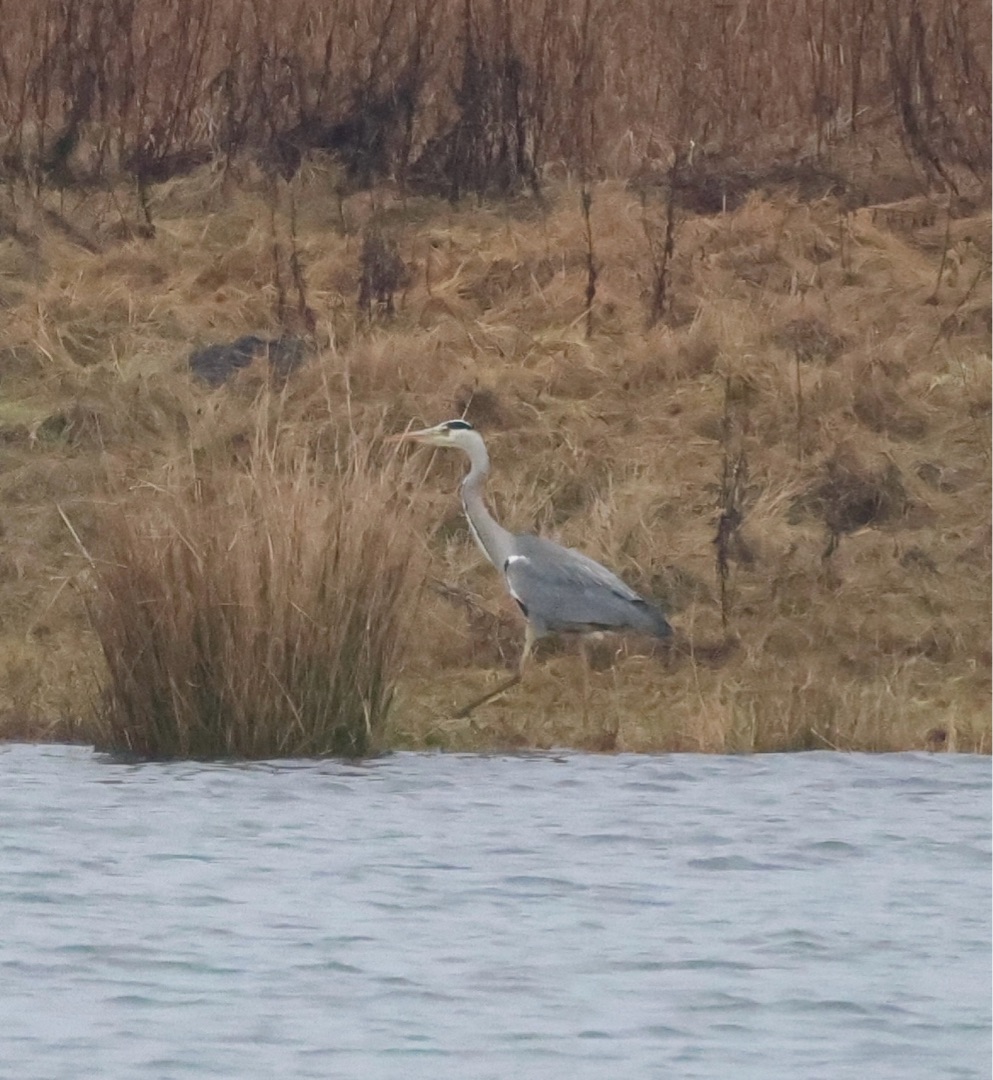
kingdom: Animalia
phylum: Chordata
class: Aves
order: Pelecaniformes
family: Ardeidae
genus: Ardea
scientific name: Ardea cinerea
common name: Fiskehejre
